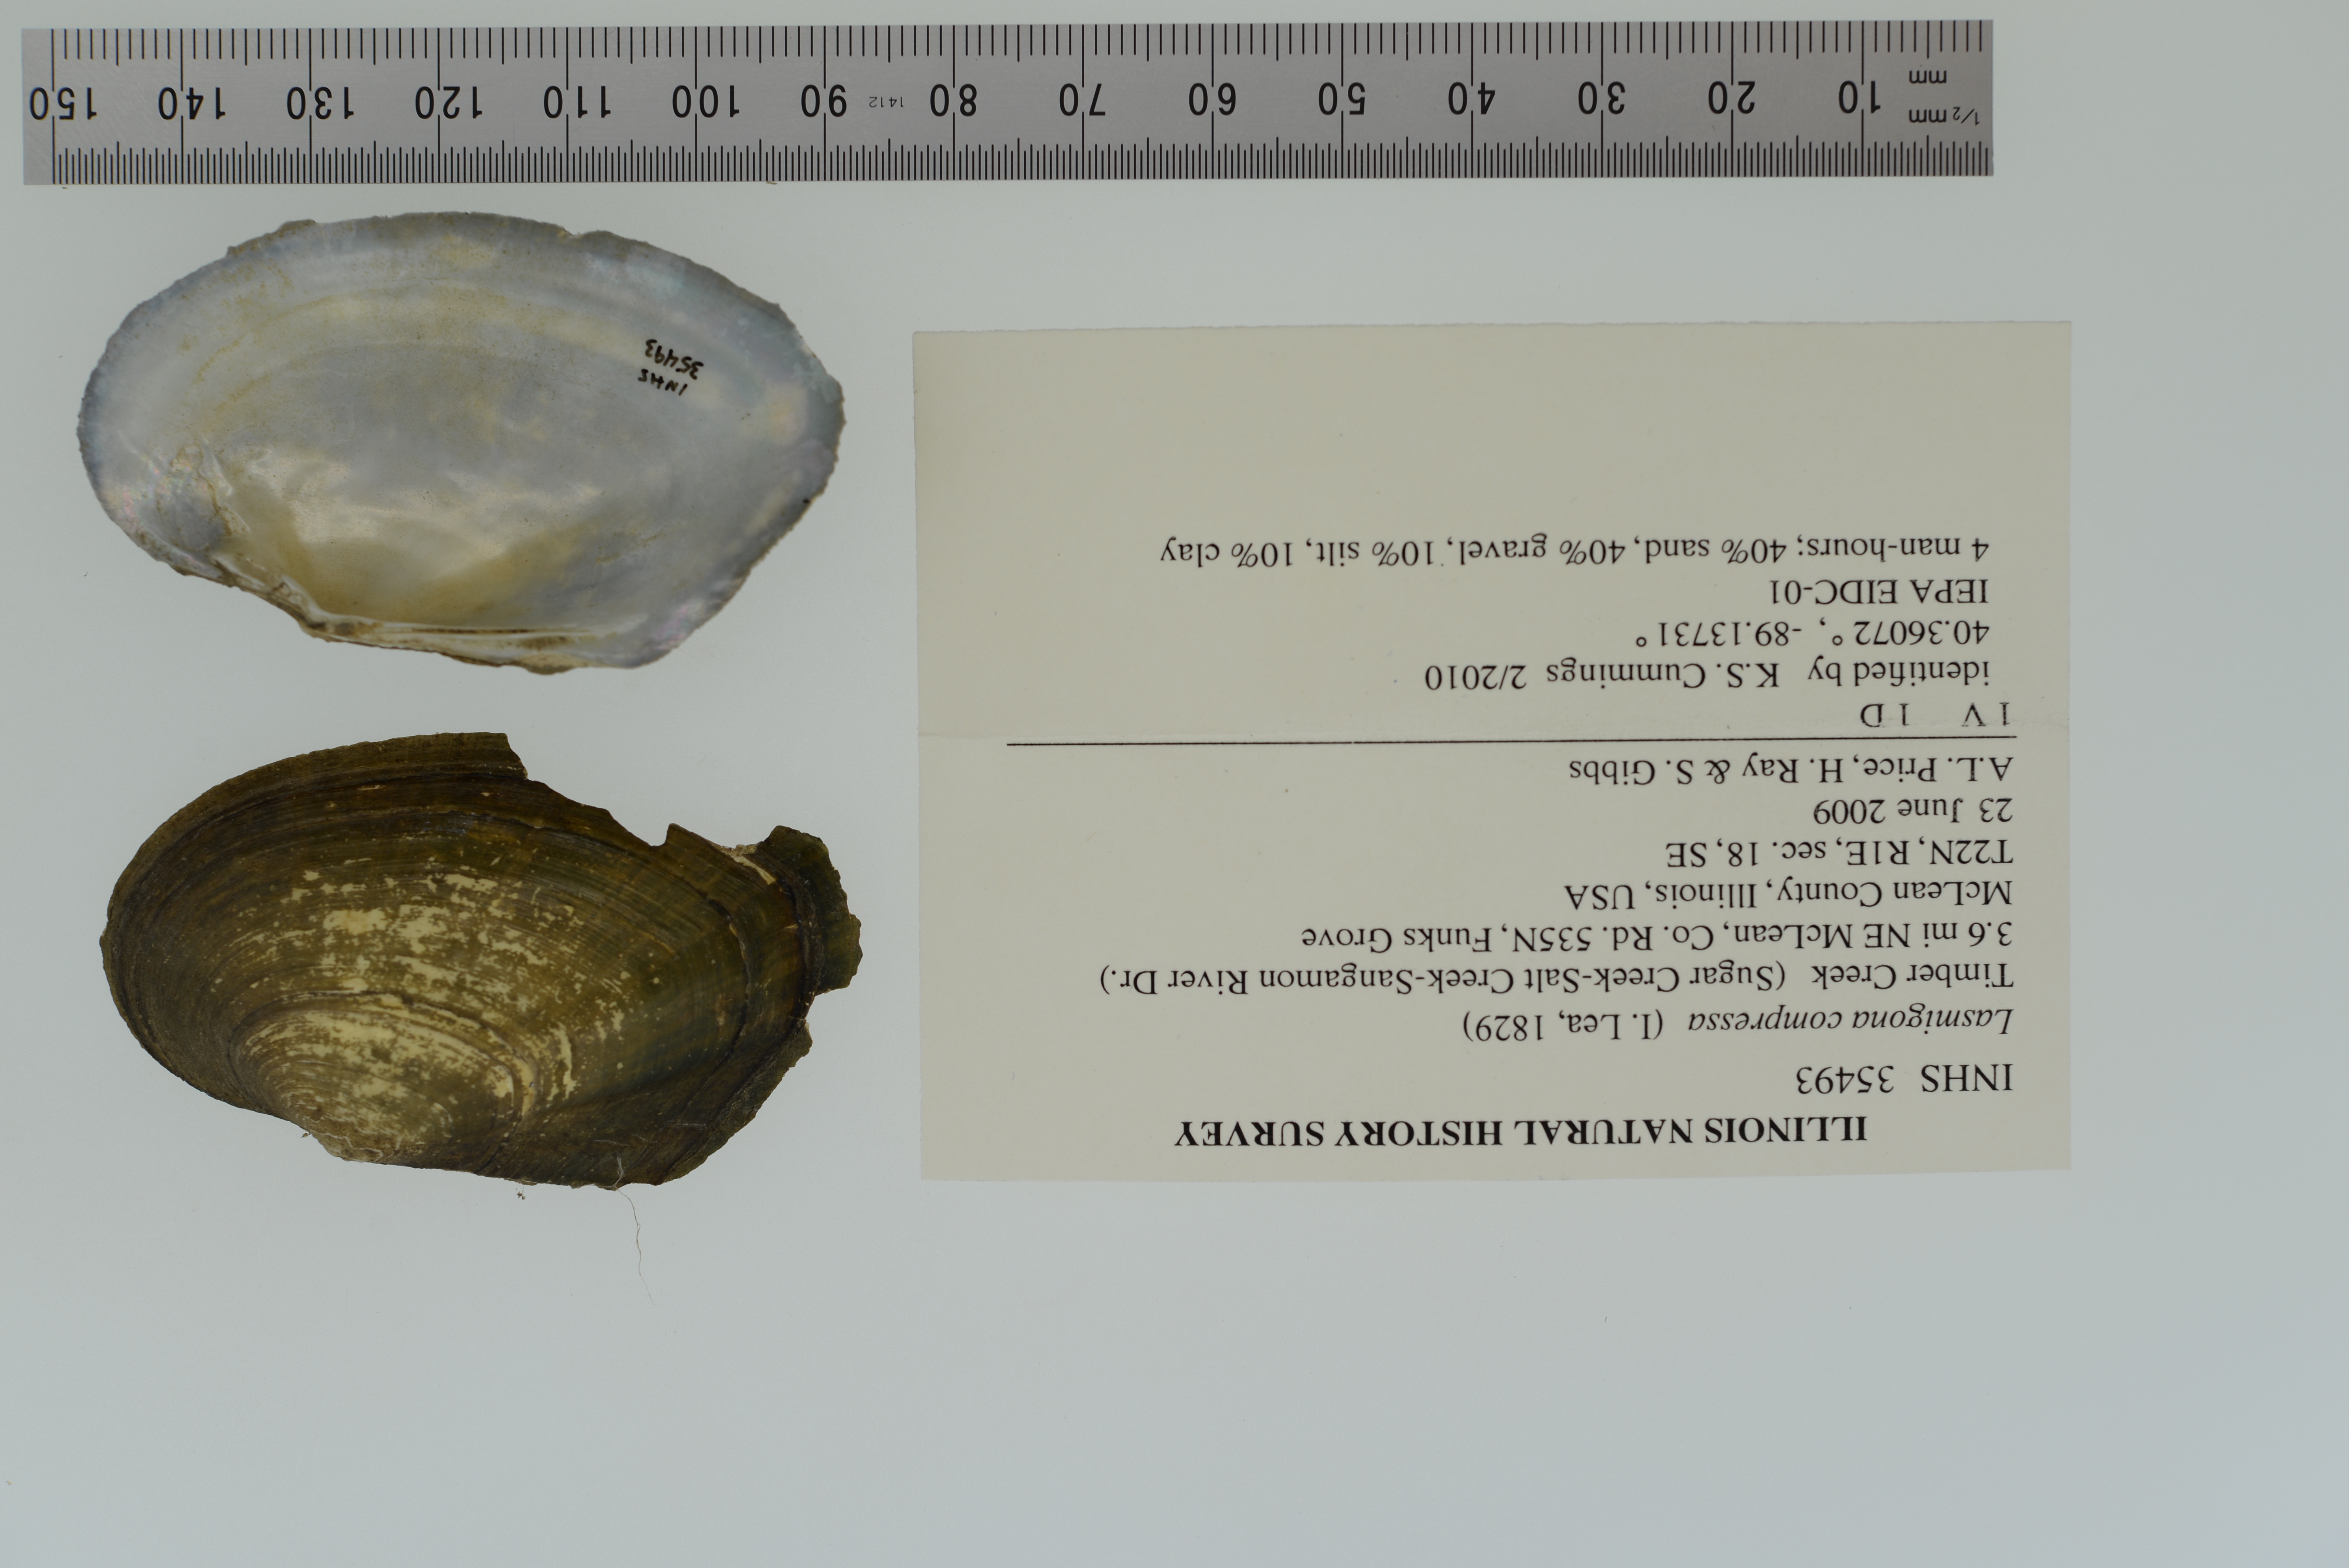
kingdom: Animalia
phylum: Mollusca
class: Bivalvia
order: Unionida
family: Unionidae
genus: Lasmigona
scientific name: Lasmigona compressa
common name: Creek heelsplitter
